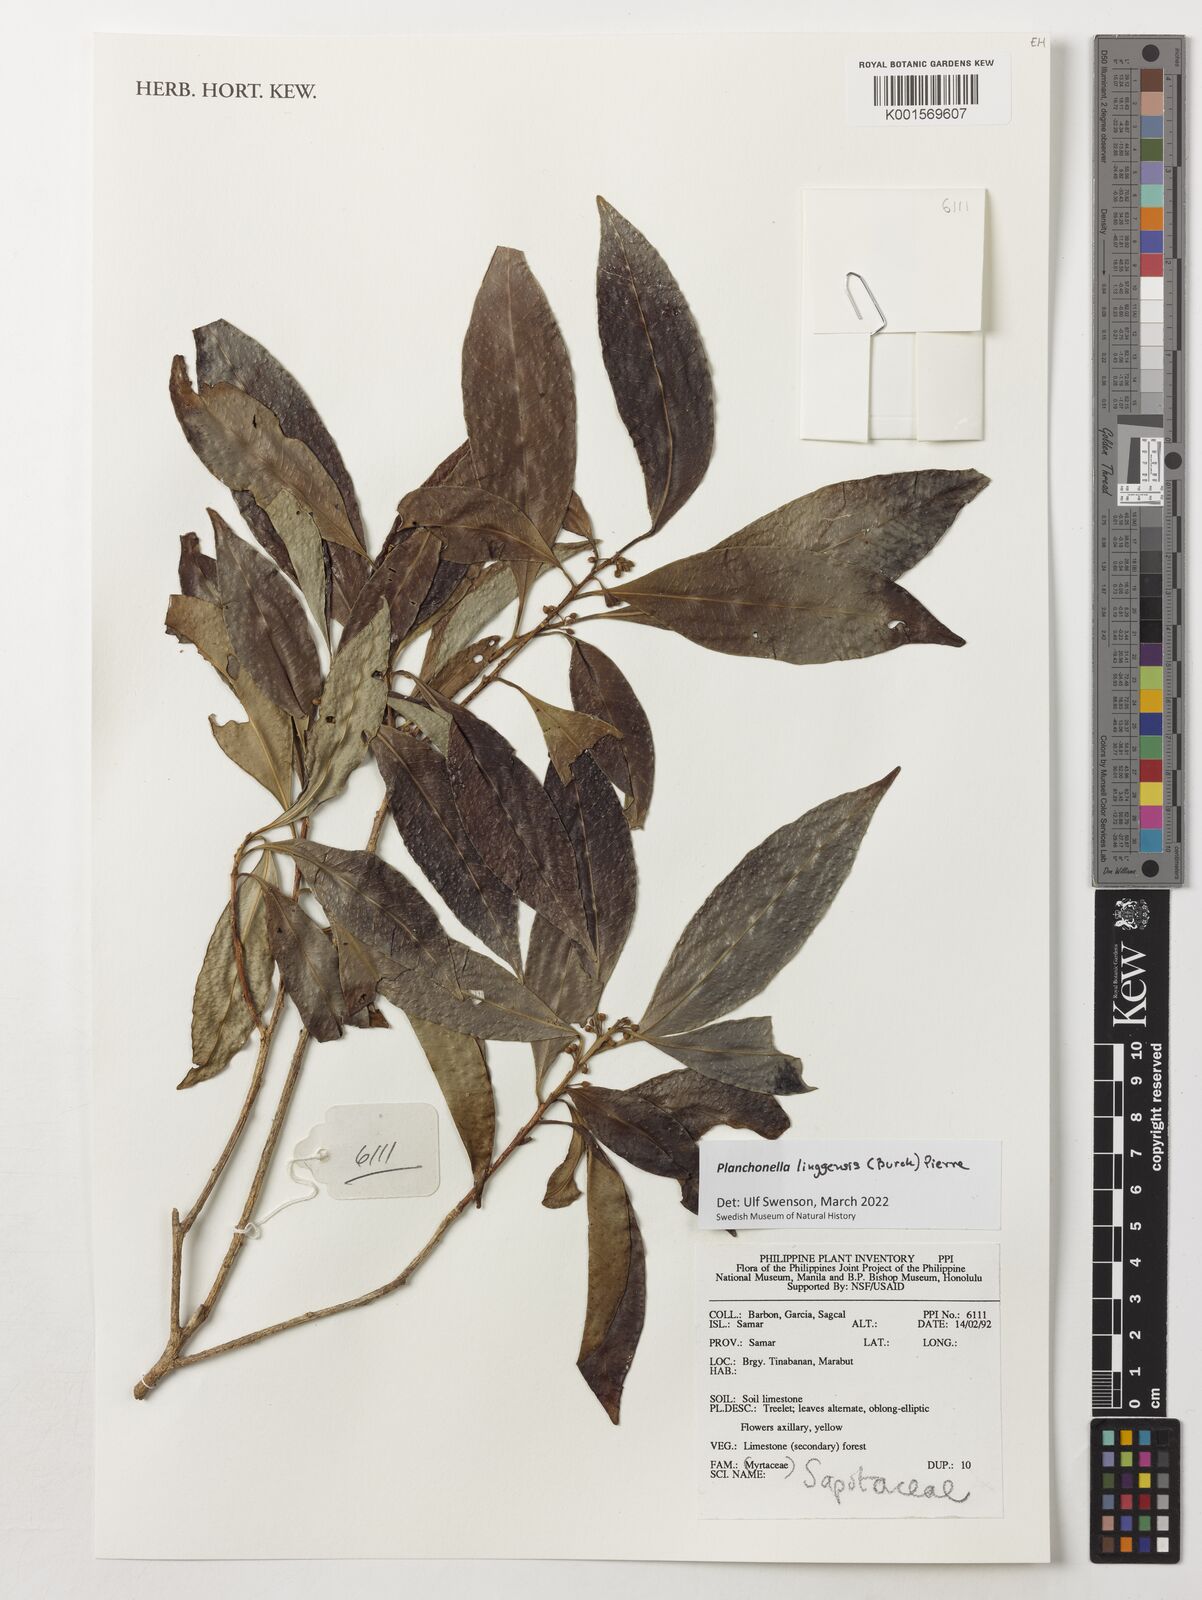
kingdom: Plantae
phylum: Tracheophyta
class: Magnoliopsida
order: Ericales
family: Sapotaceae
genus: Planchonella
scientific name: Planchonella chartacea
